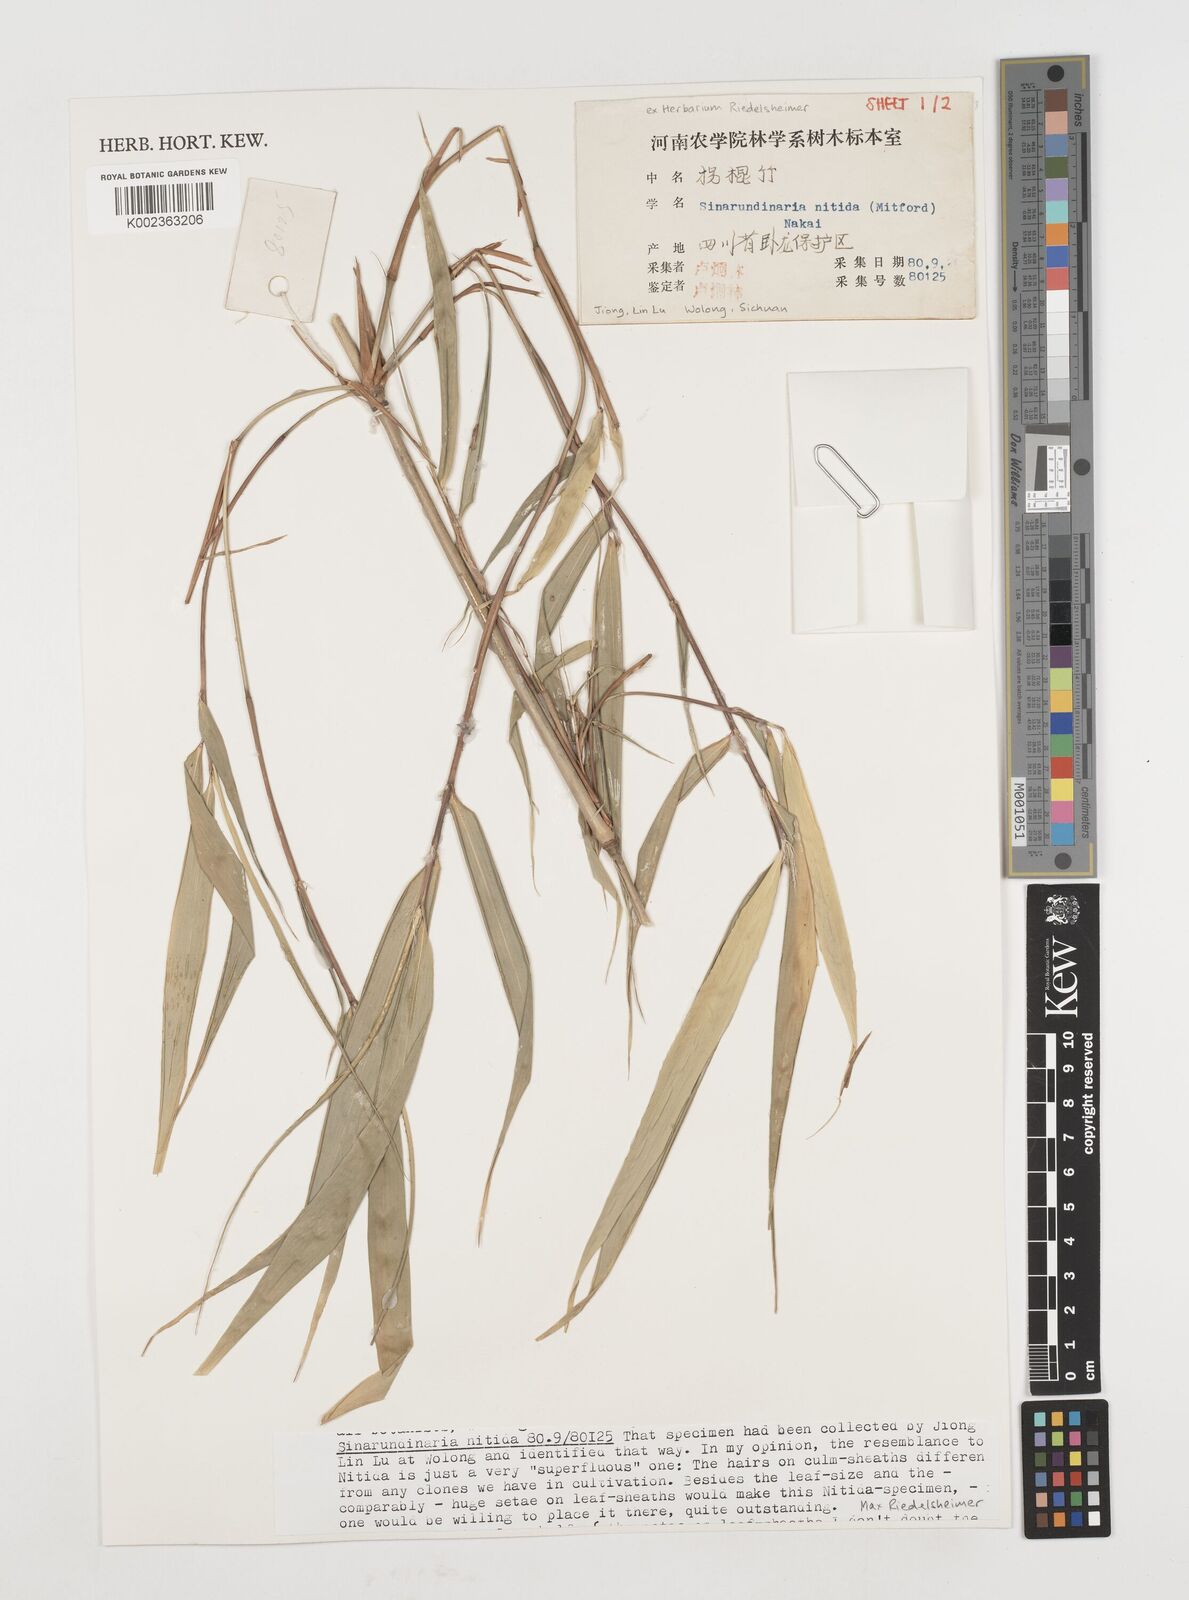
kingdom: Plantae
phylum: Tracheophyta
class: Liliopsida
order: Poales
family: Poaceae
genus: Fargesia
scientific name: Fargesia nitida ex
